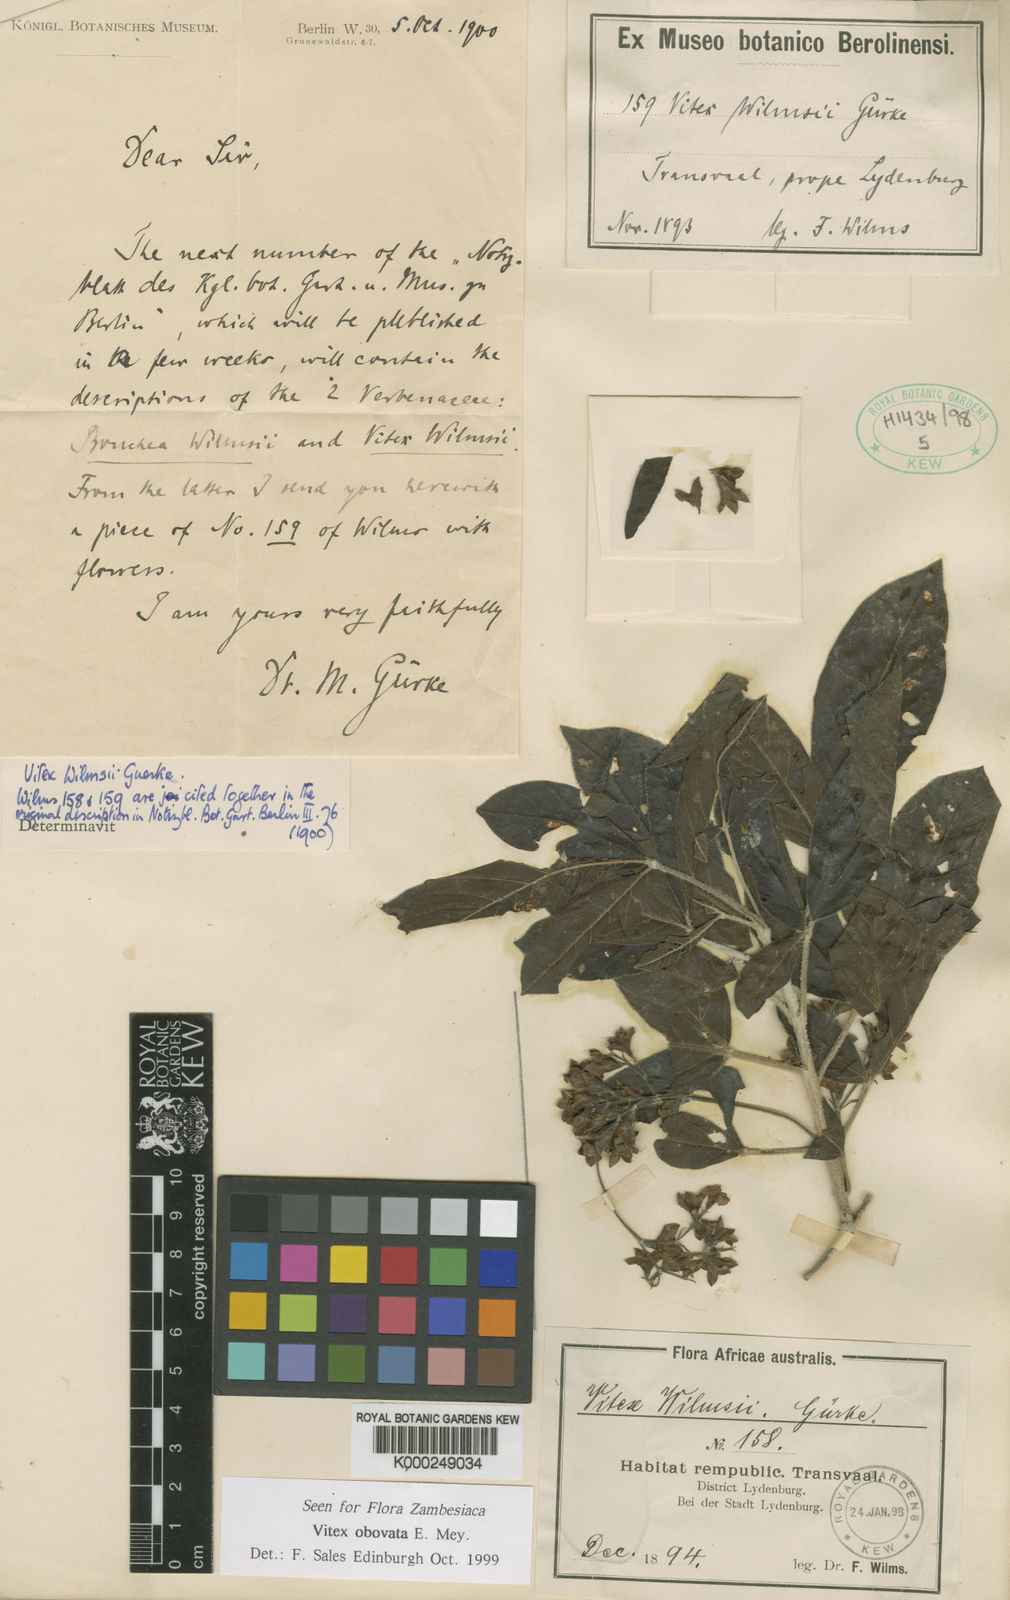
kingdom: Plantae
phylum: Tracheophyta
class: Magnoliopsida
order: Lamiales
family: Lamiaceae
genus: Vitex
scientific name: Vitex obovata
